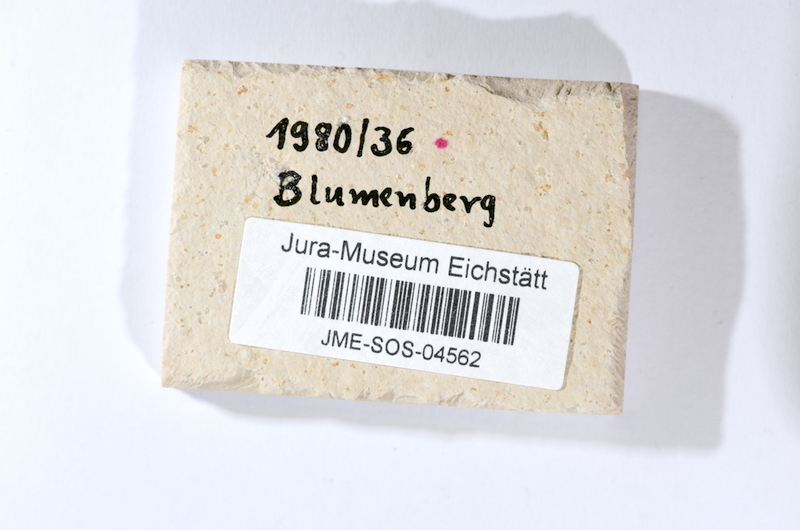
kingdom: Animalia
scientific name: Animalia
